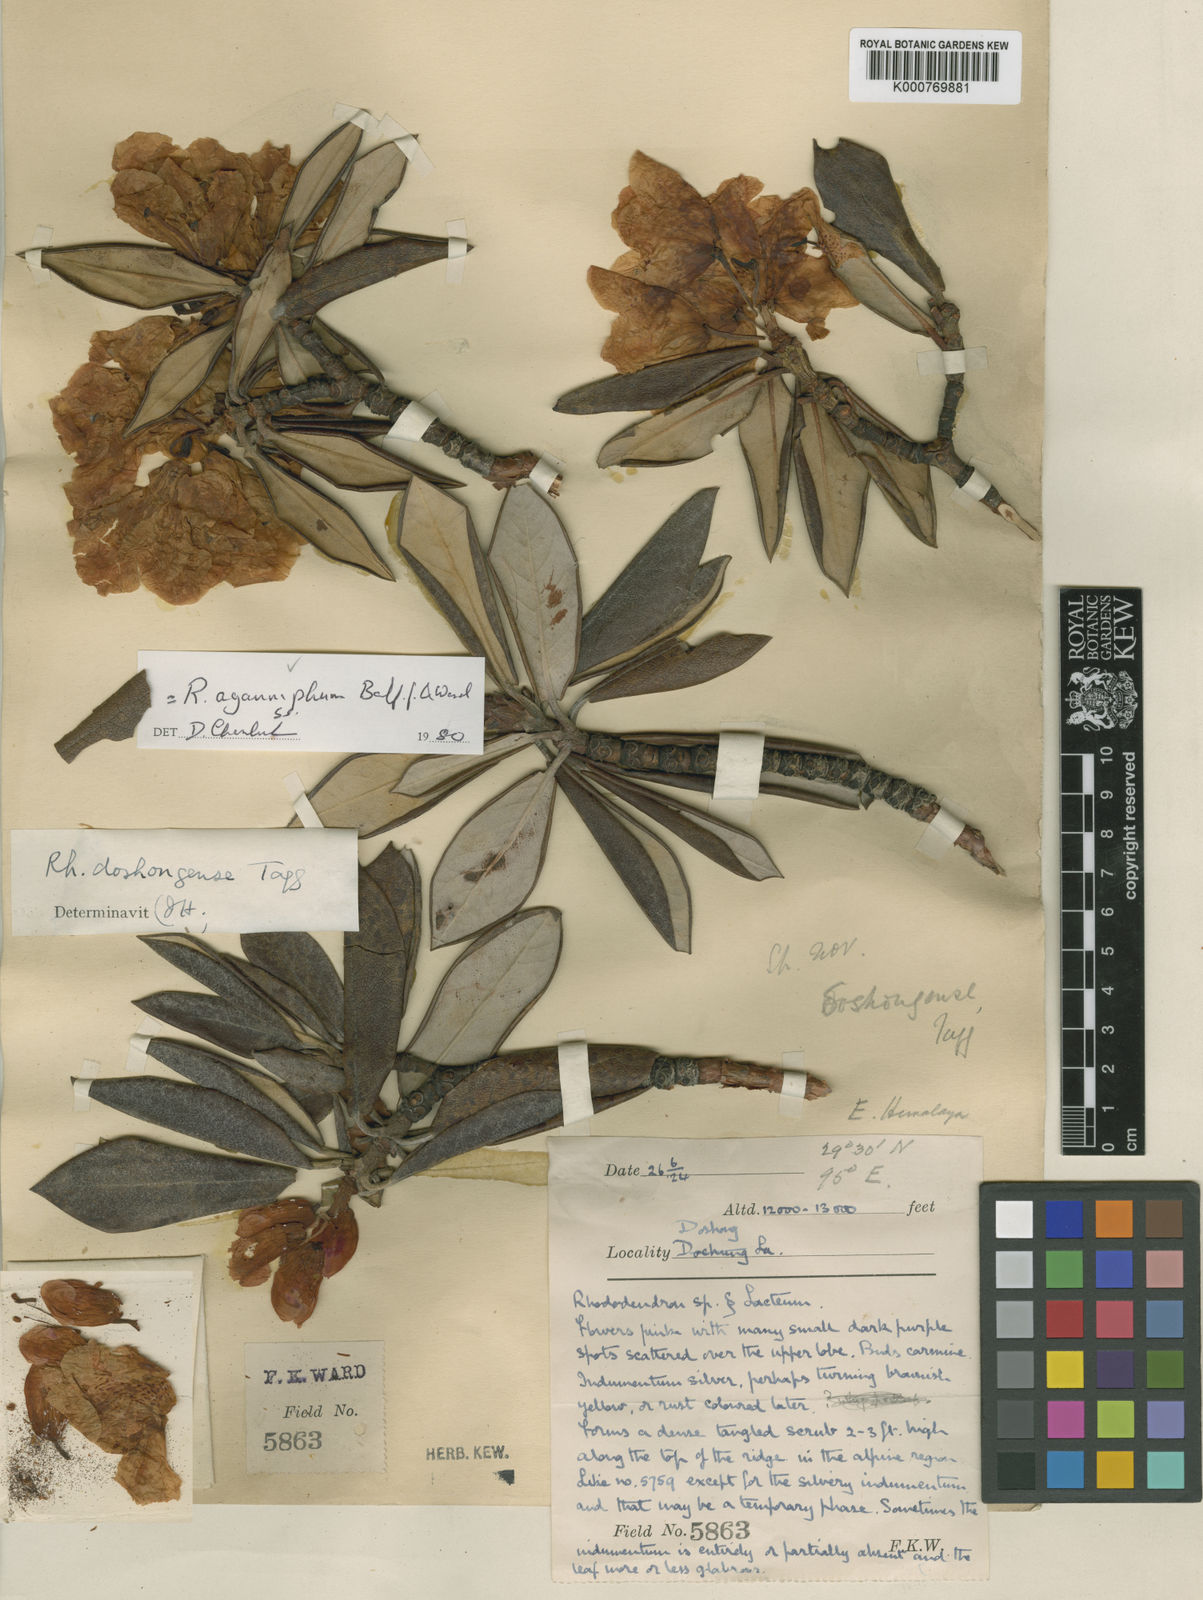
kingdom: Plantae
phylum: Tracheophyta
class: Magnoliopsida
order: Ericales
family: Ericaceae
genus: Rhododendron
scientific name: Rhododendron
